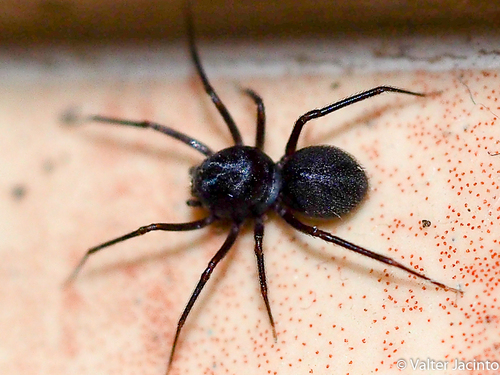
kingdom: Animalia
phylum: Arthropoda
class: Arachnida
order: Araneae
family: Scytodidae
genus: Scytodes
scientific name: Scytodes fusca
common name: Spitting spiders
